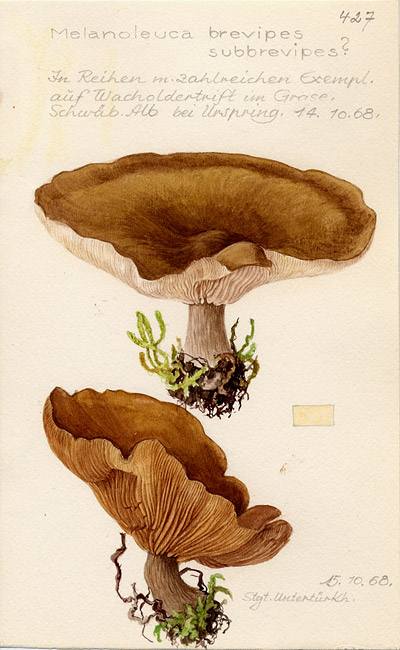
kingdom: Fungi
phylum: Basidiomycota
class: Agaricomycetes
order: Agaricales
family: Tricholomataceae
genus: Melanoleuca
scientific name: Melanoleuca brevipes
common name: Stunted cavalier
